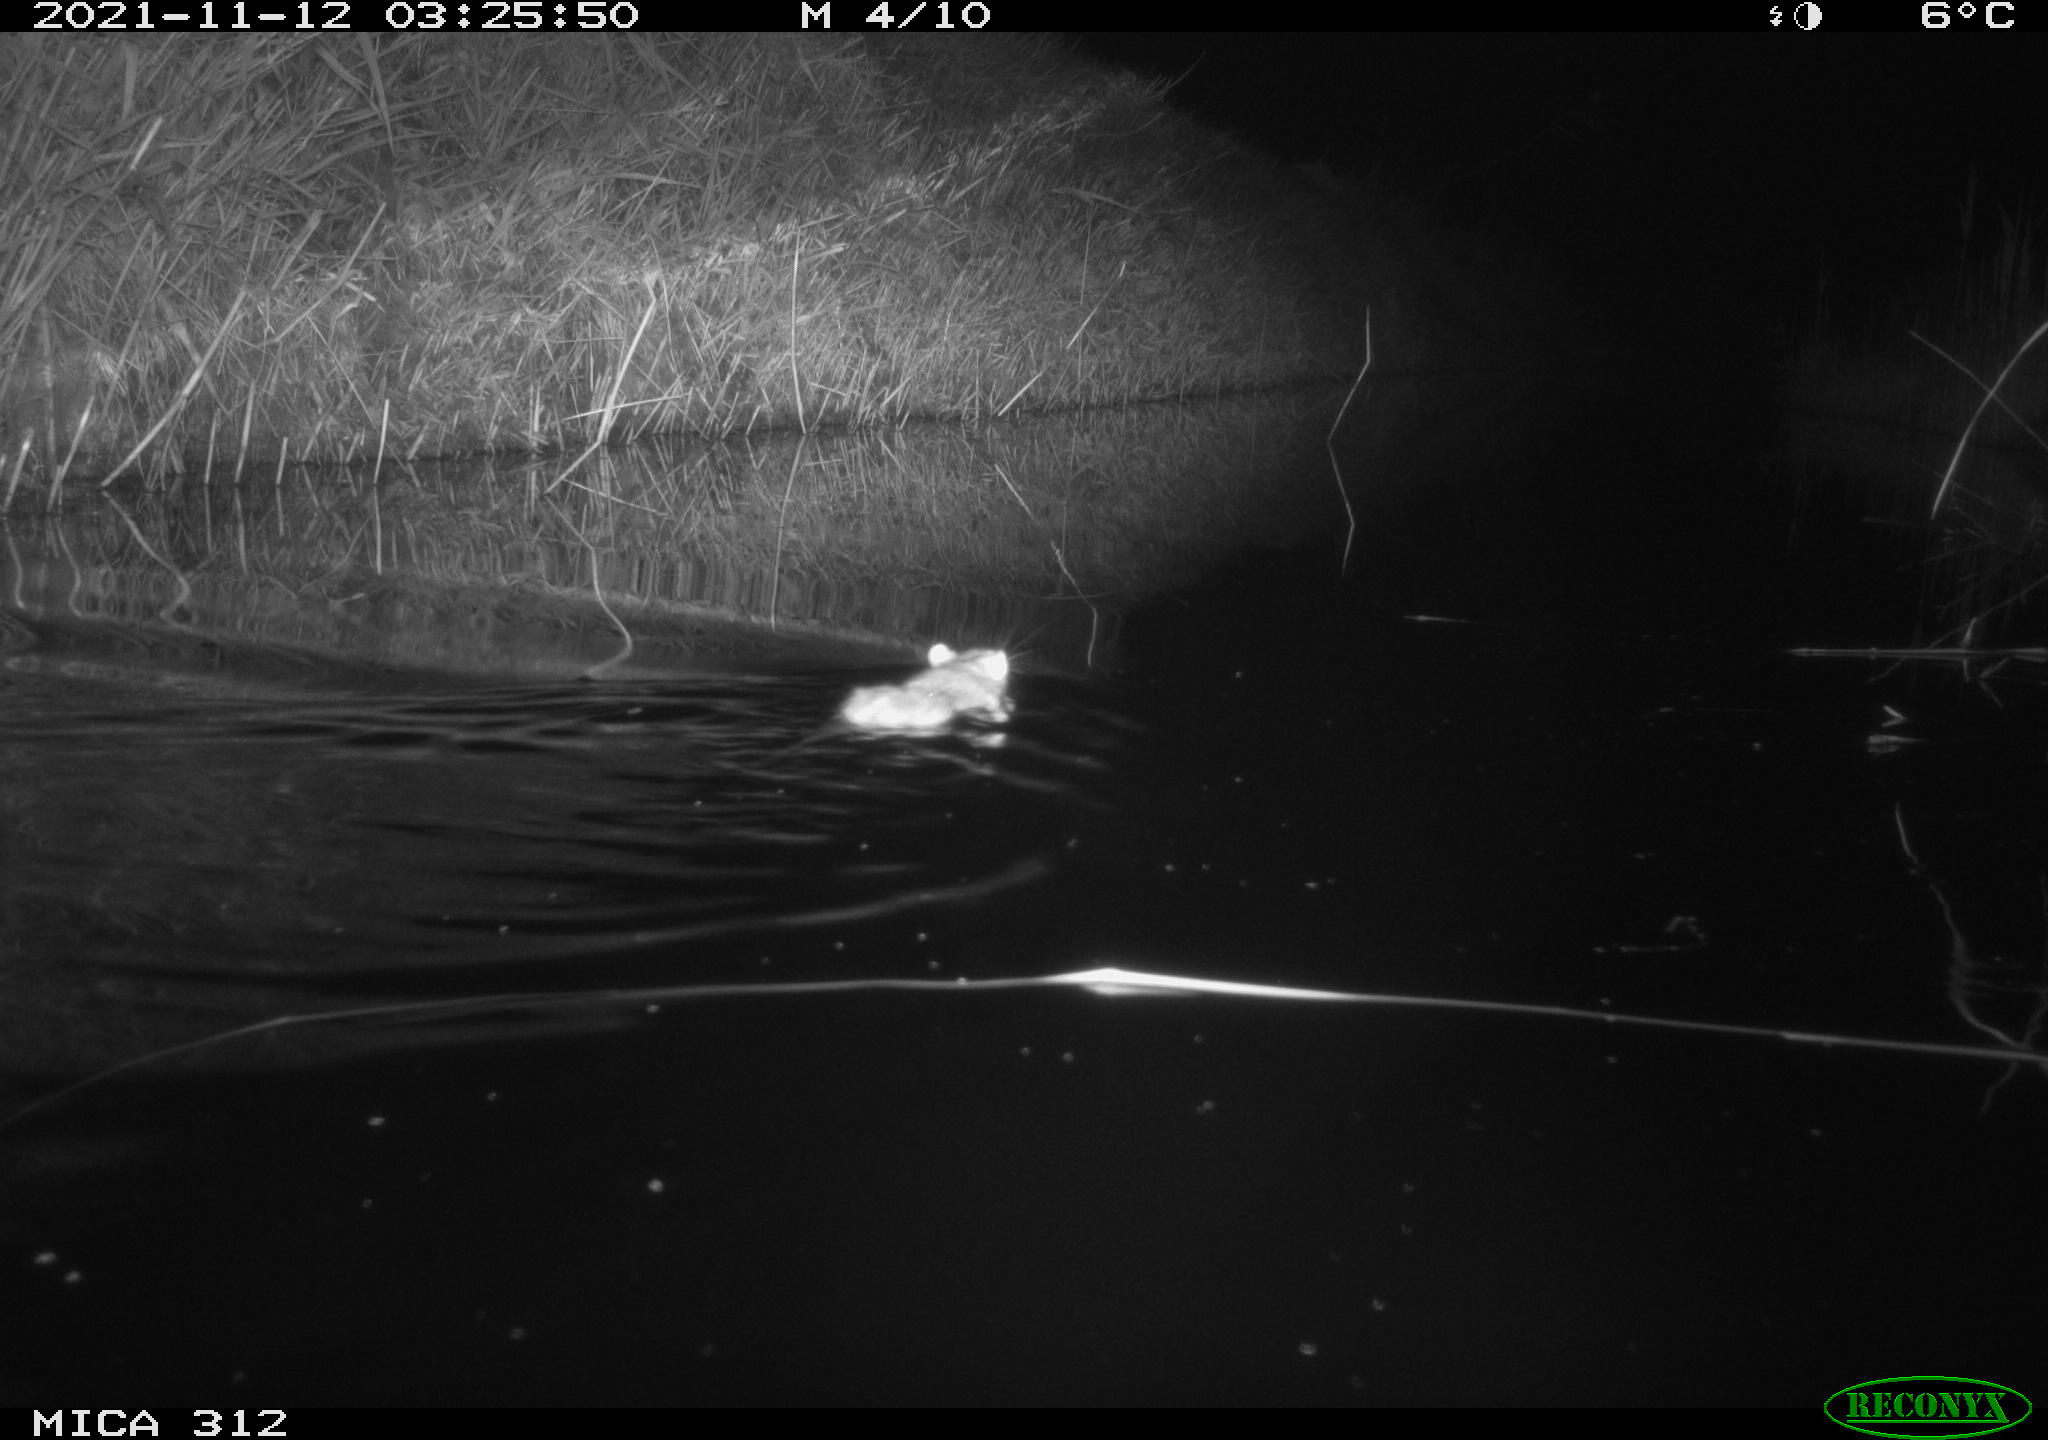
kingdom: Animalia
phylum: Chordata
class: Mammalia
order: Rodentia
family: Muridae
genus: Rattus
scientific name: Rattus norvegicus
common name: Brown rat
